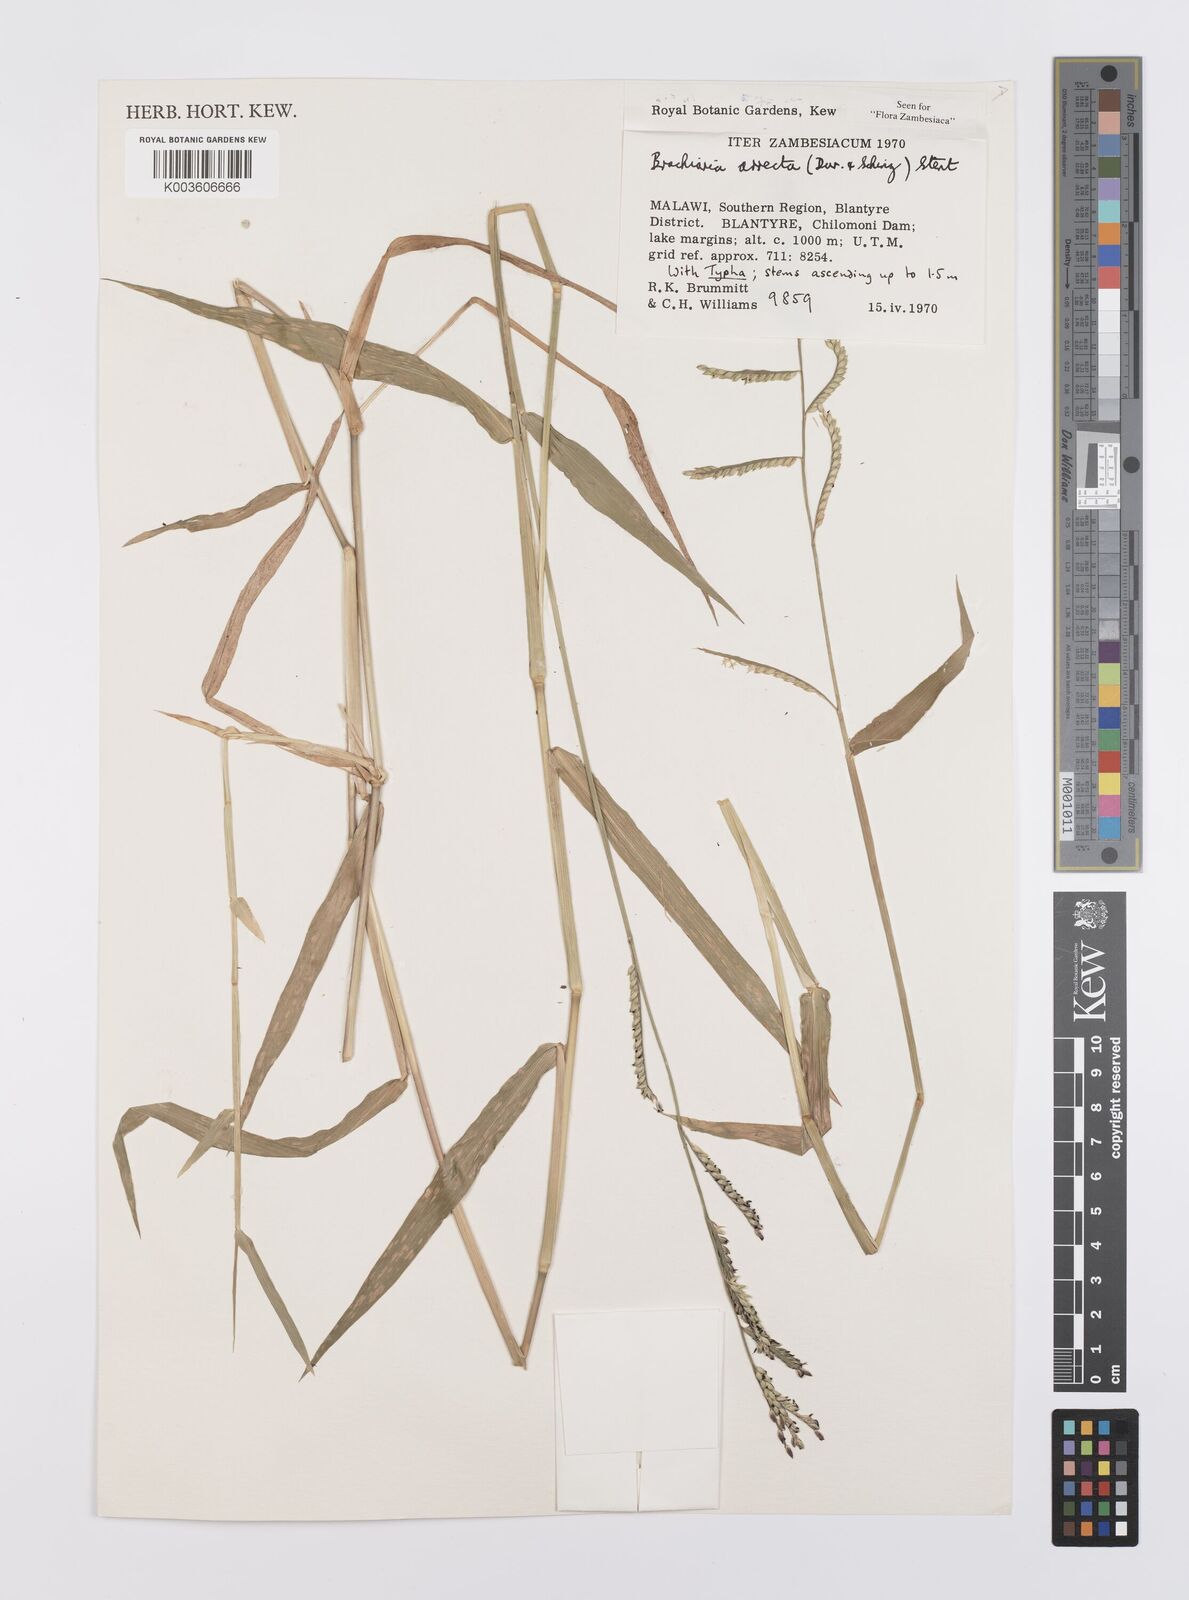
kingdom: Plantae
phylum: Tracheophyta
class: Liliopsida
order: Poales
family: Poaceae
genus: Urochloa
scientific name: Urochloa arrecta
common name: African signalgrass
